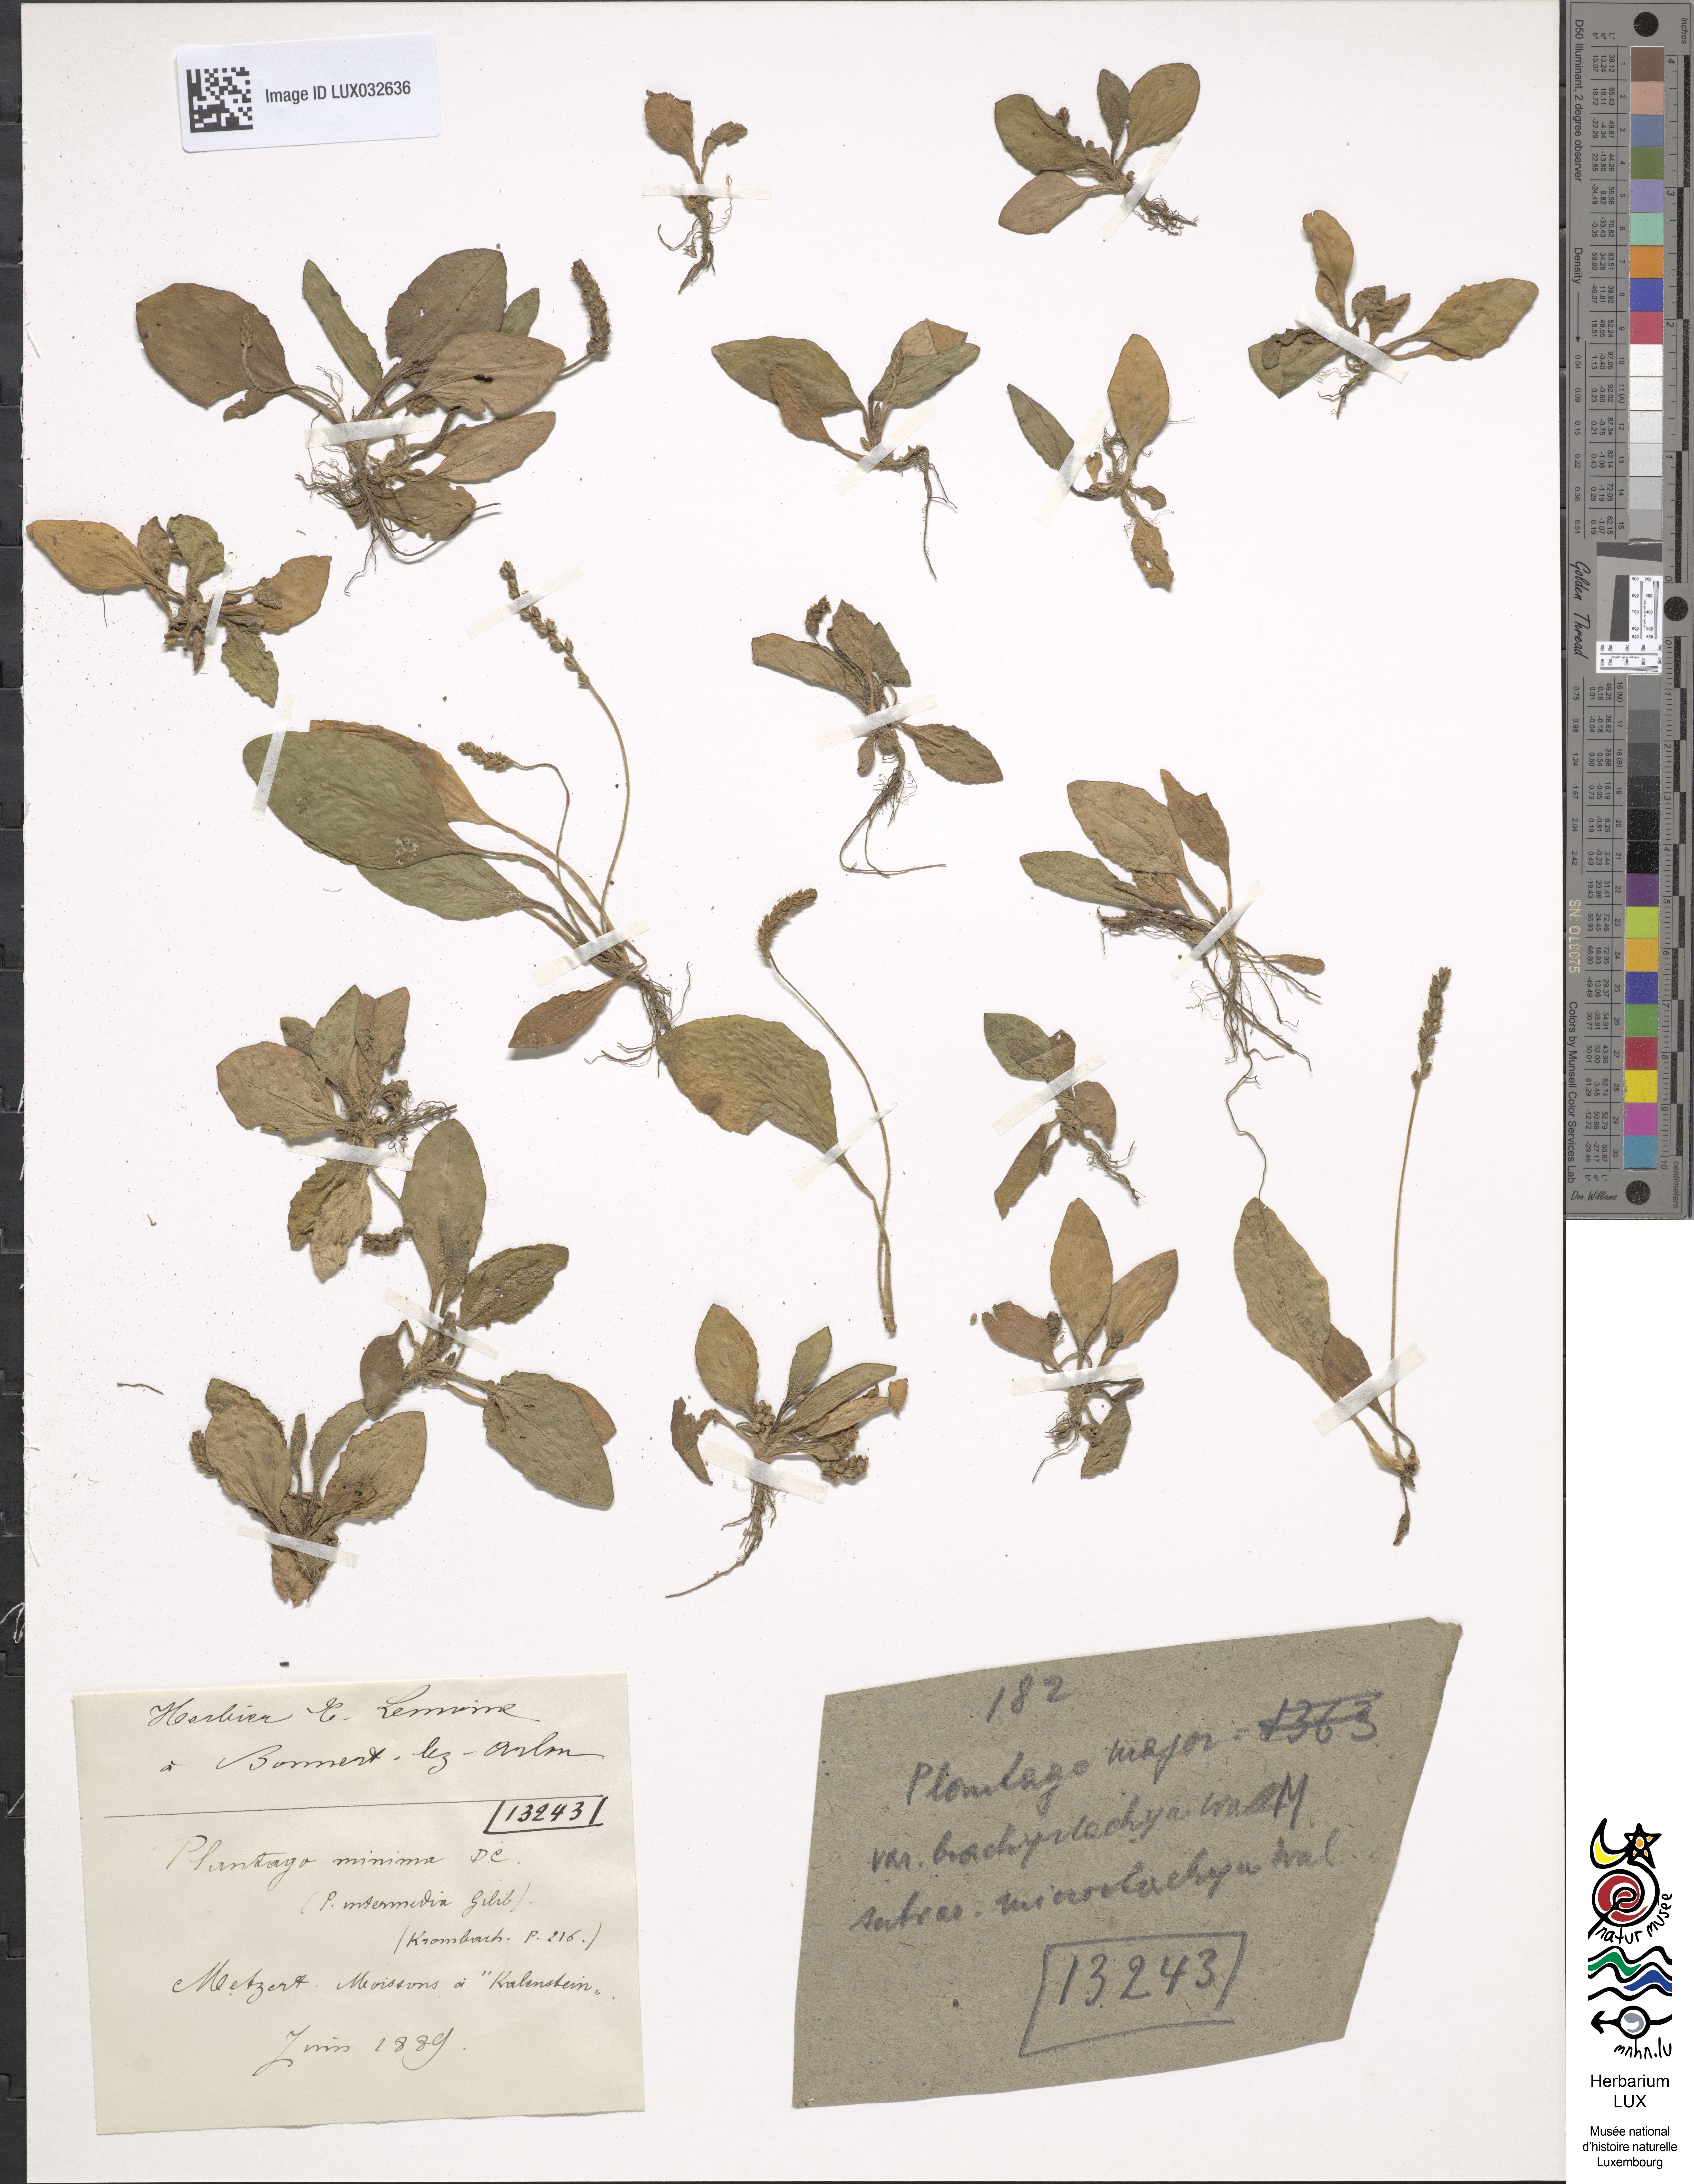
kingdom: Plantae
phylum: Tracheophyta
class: Magnoliopsida
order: Lamiales
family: Plantaginaceae
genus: Plantago
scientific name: Plantago
